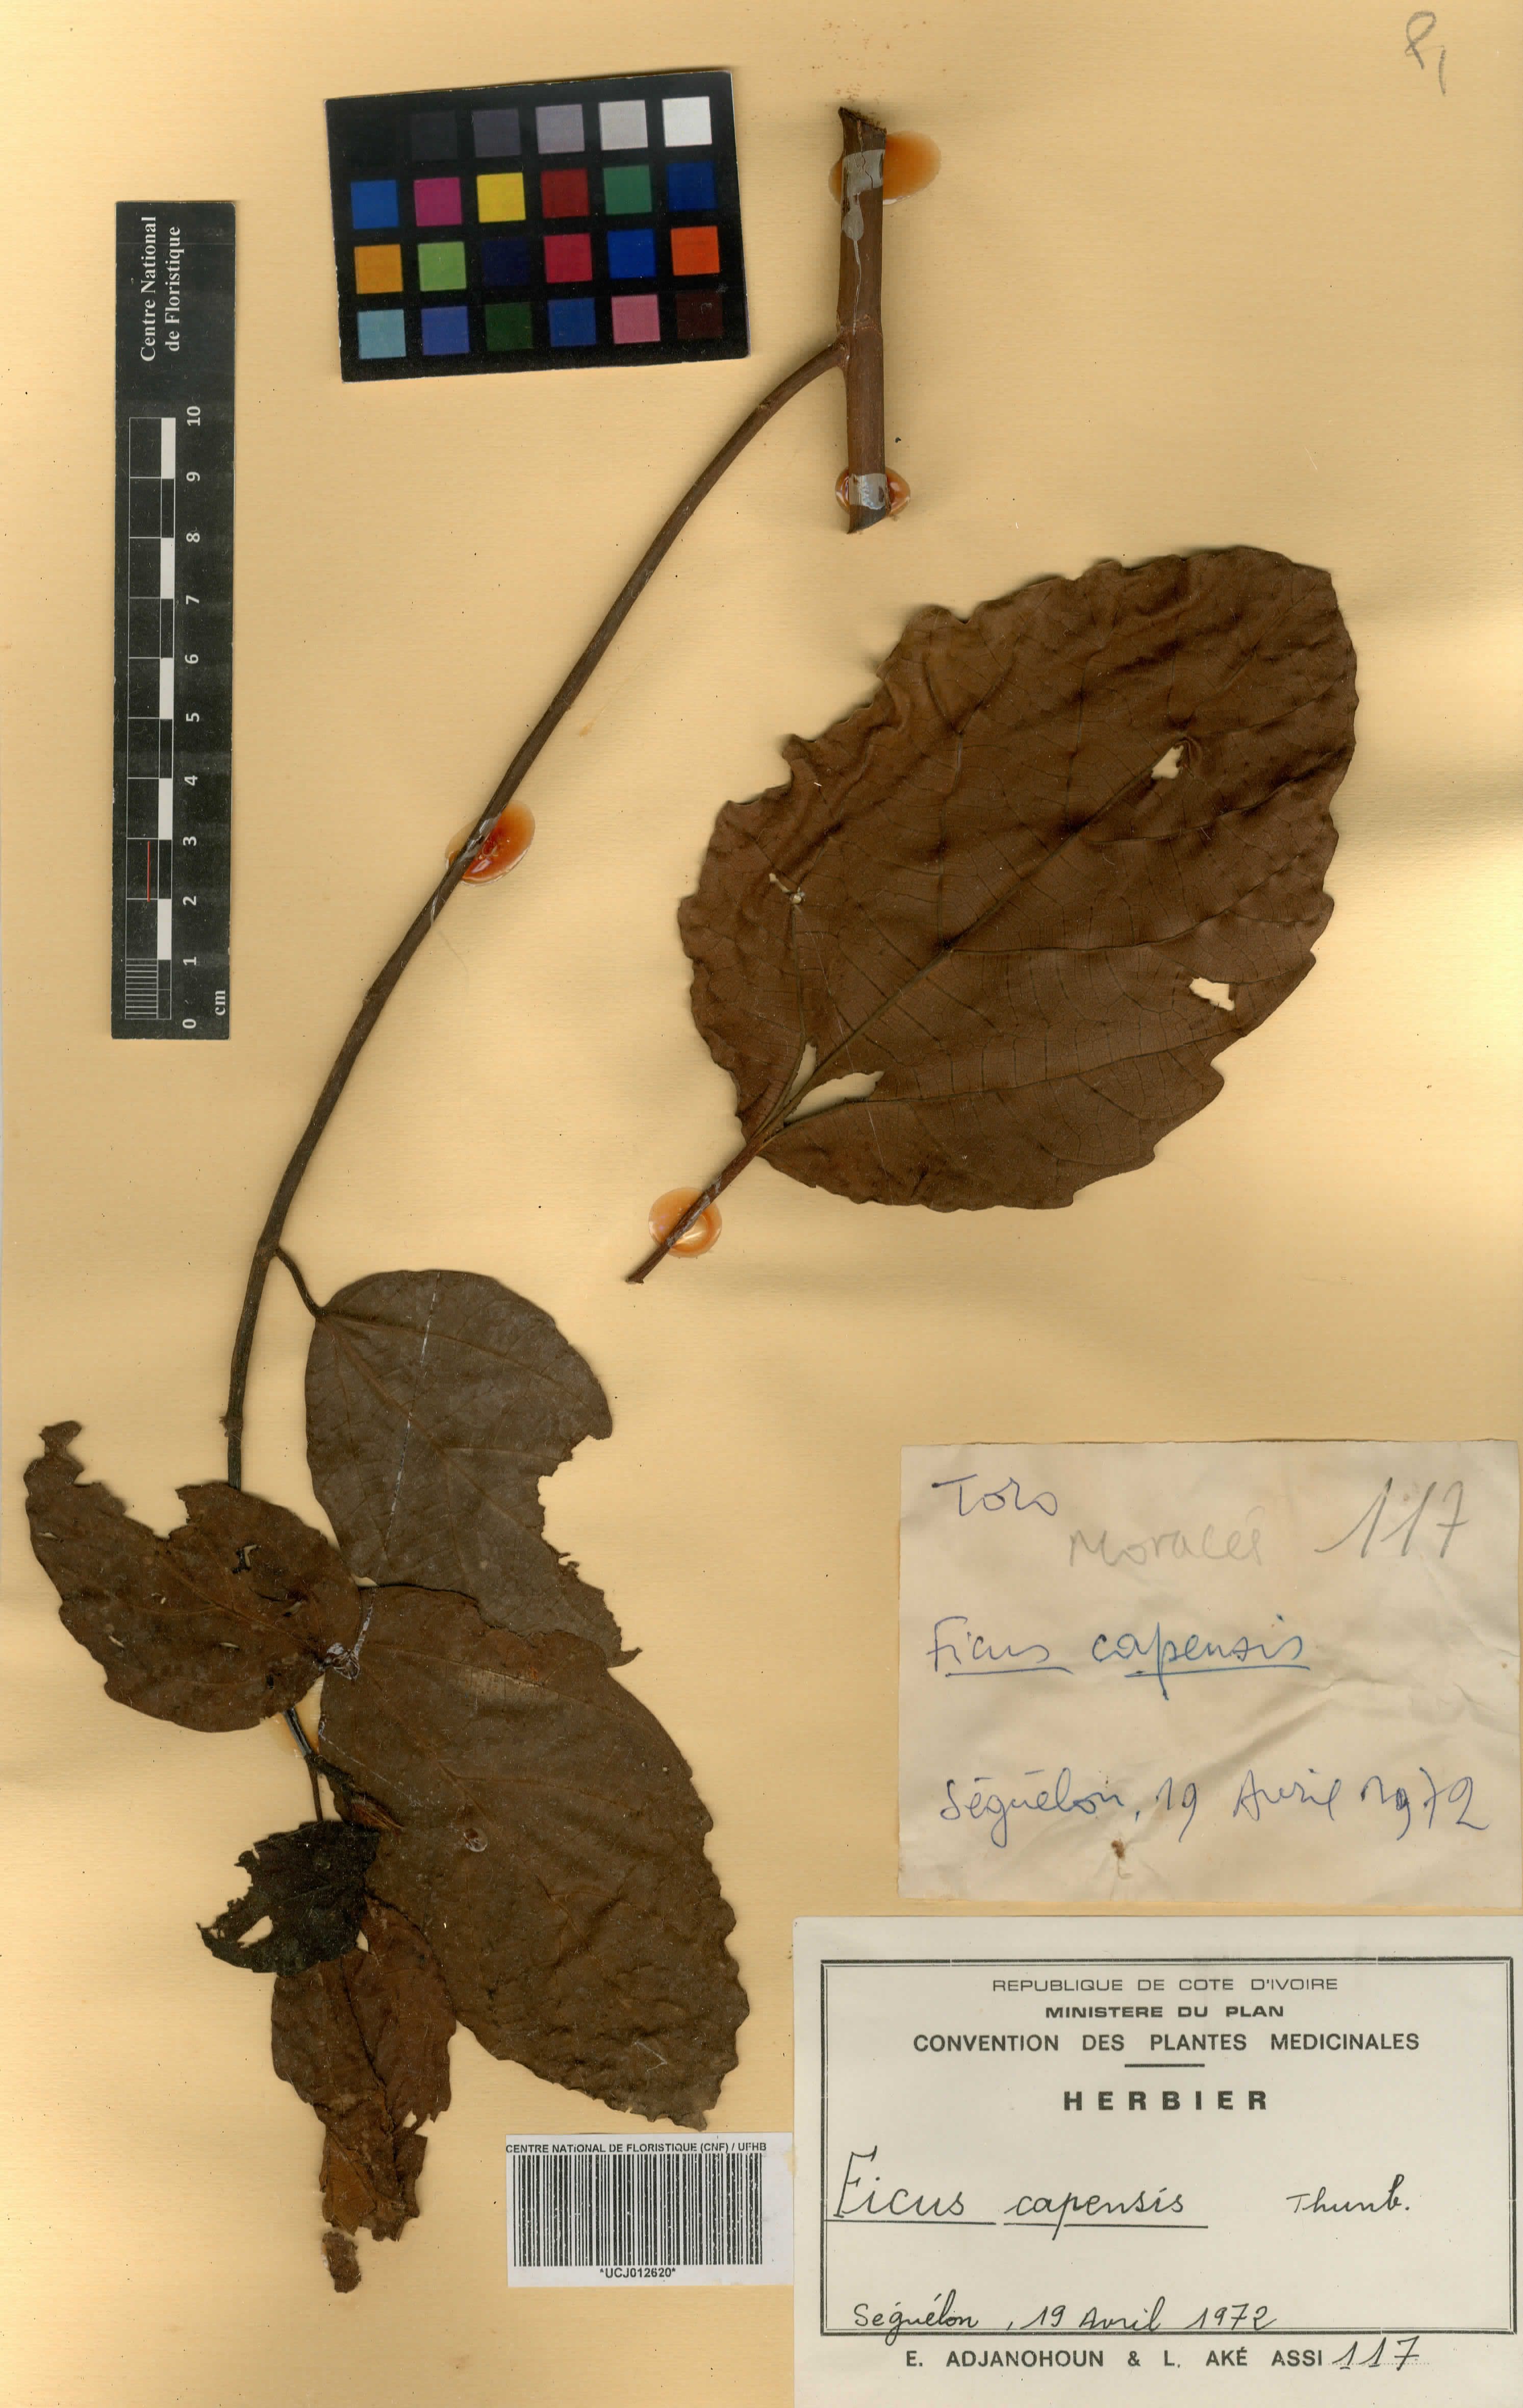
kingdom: Plantae
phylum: Tracheophyta
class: Magnoliopsida
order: Rosales
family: Moraceae
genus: Ficus
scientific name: Ficus sur
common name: Cape fig
